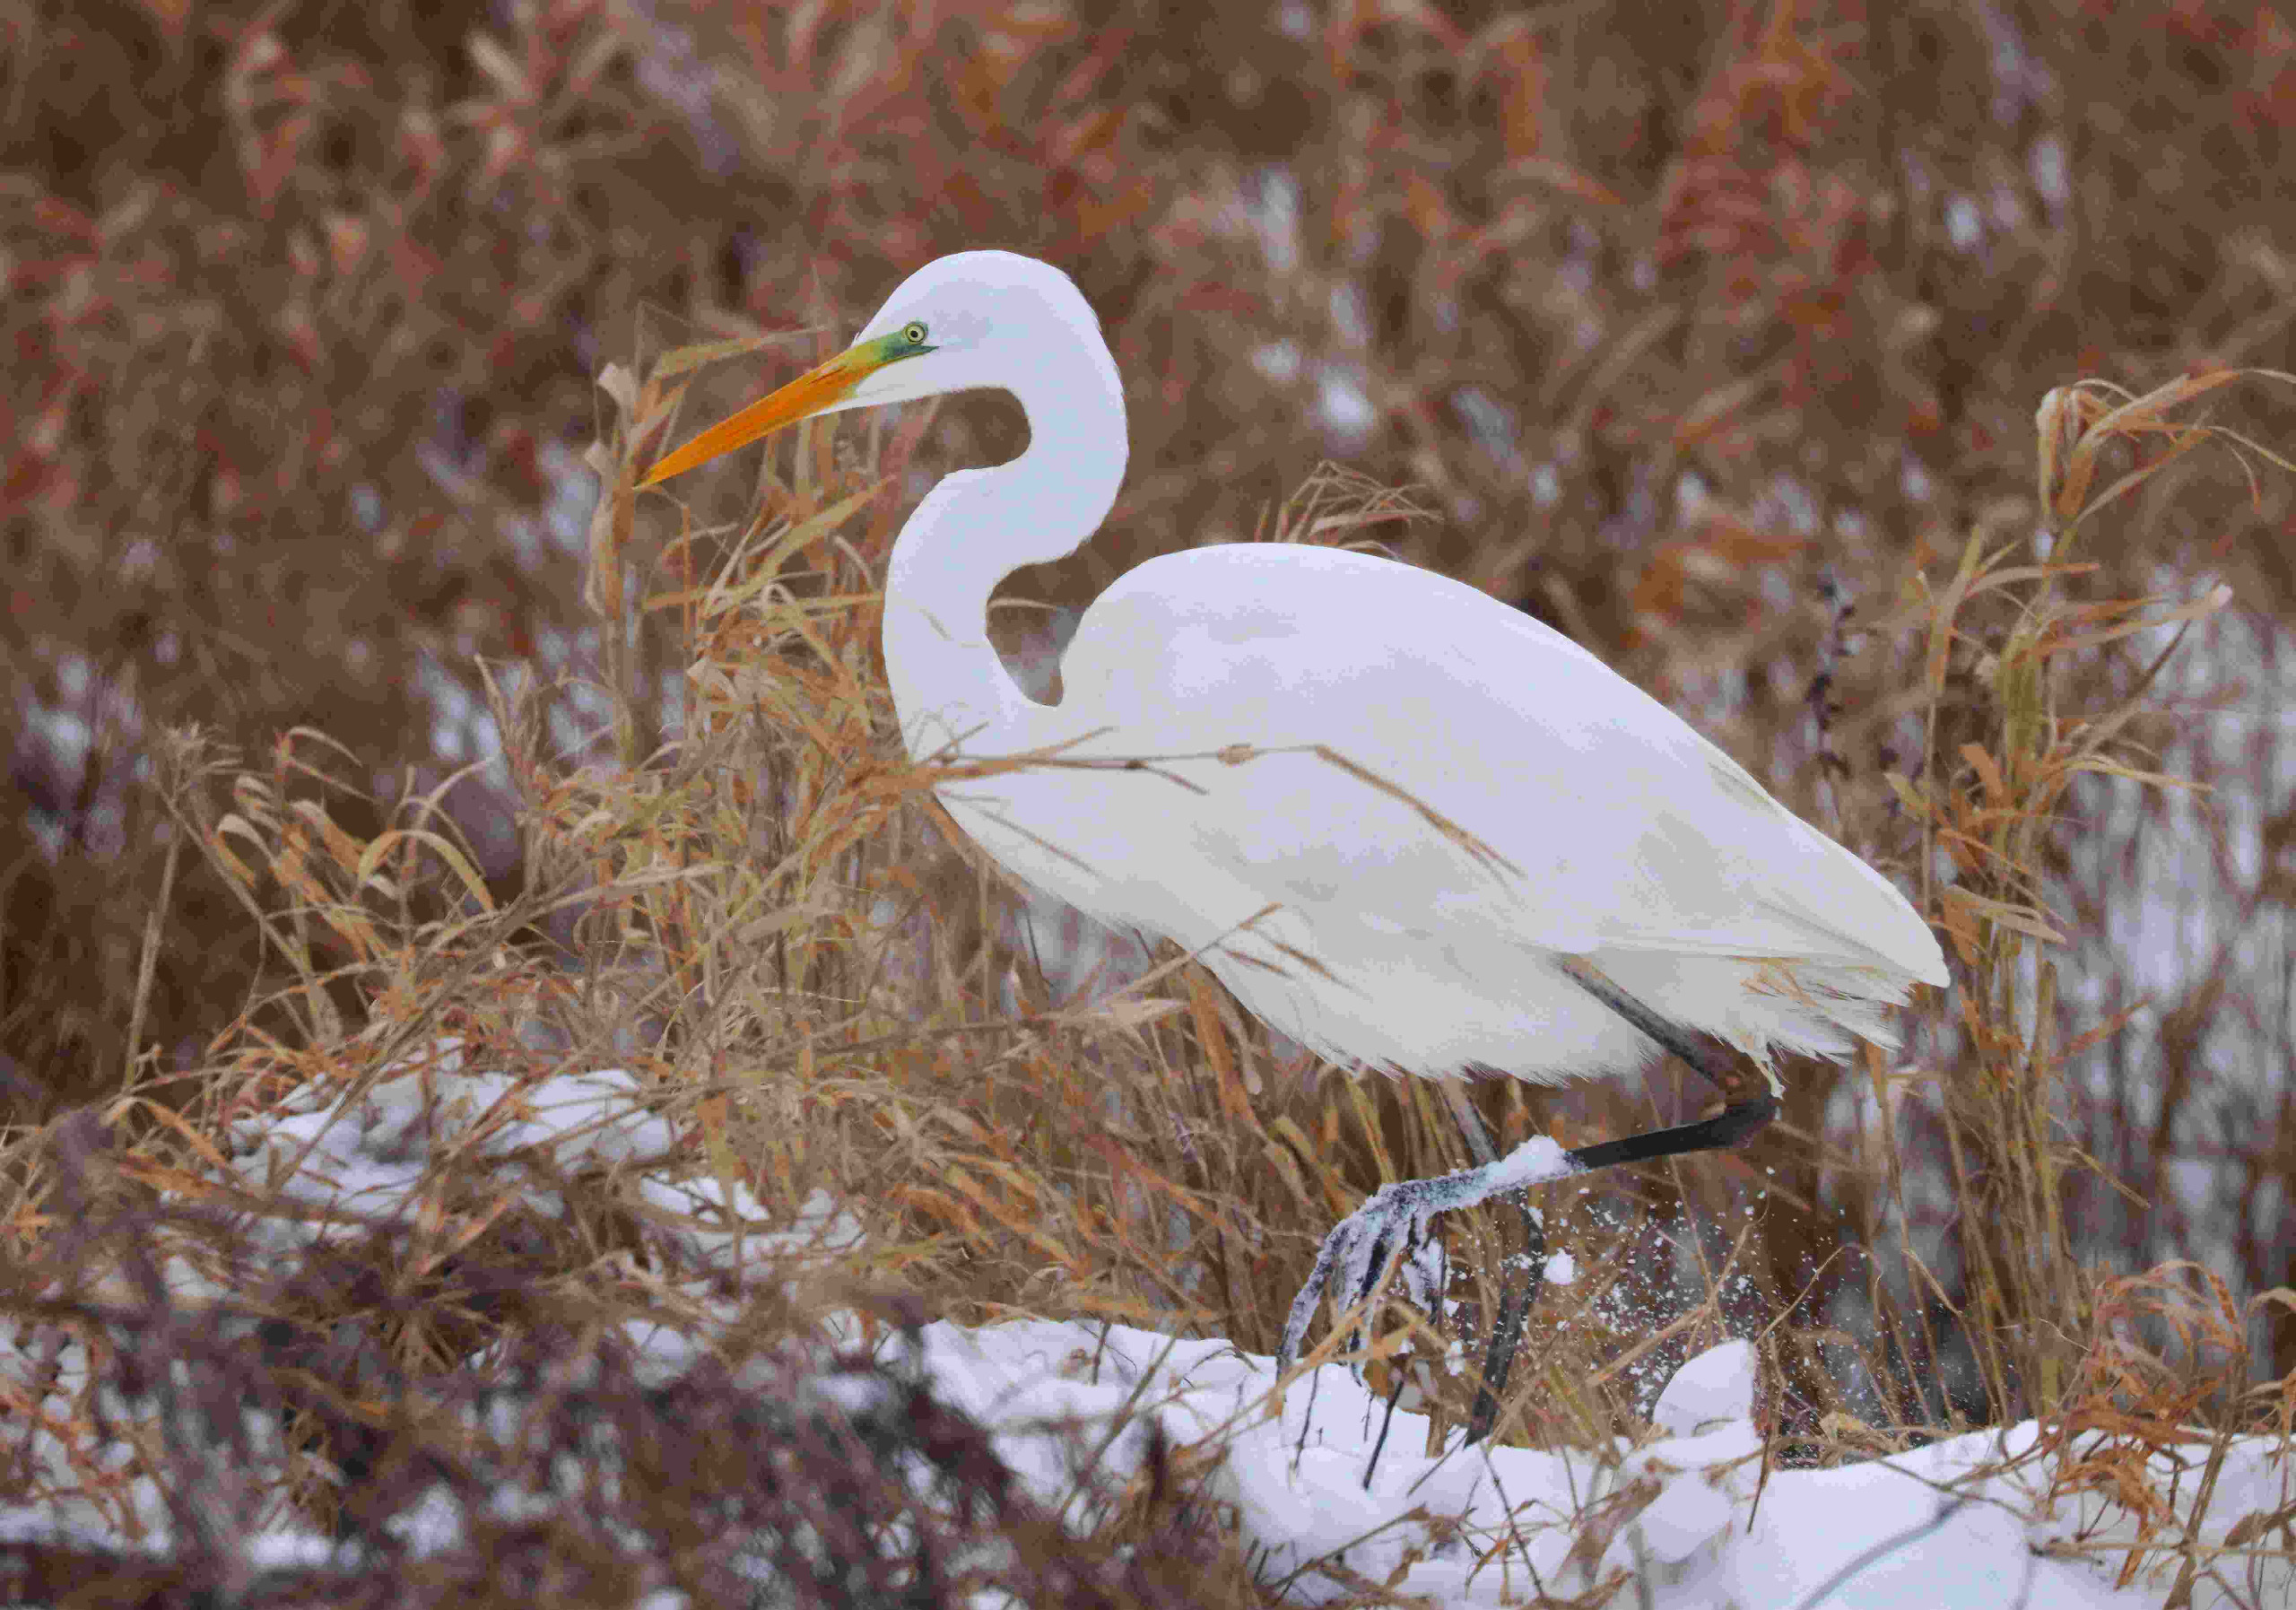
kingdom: Animalia
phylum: Chordata
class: Aves
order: Pelecaniformes
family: Ardeidae
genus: Ardea
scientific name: Ardea alba
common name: Sølvhejre
